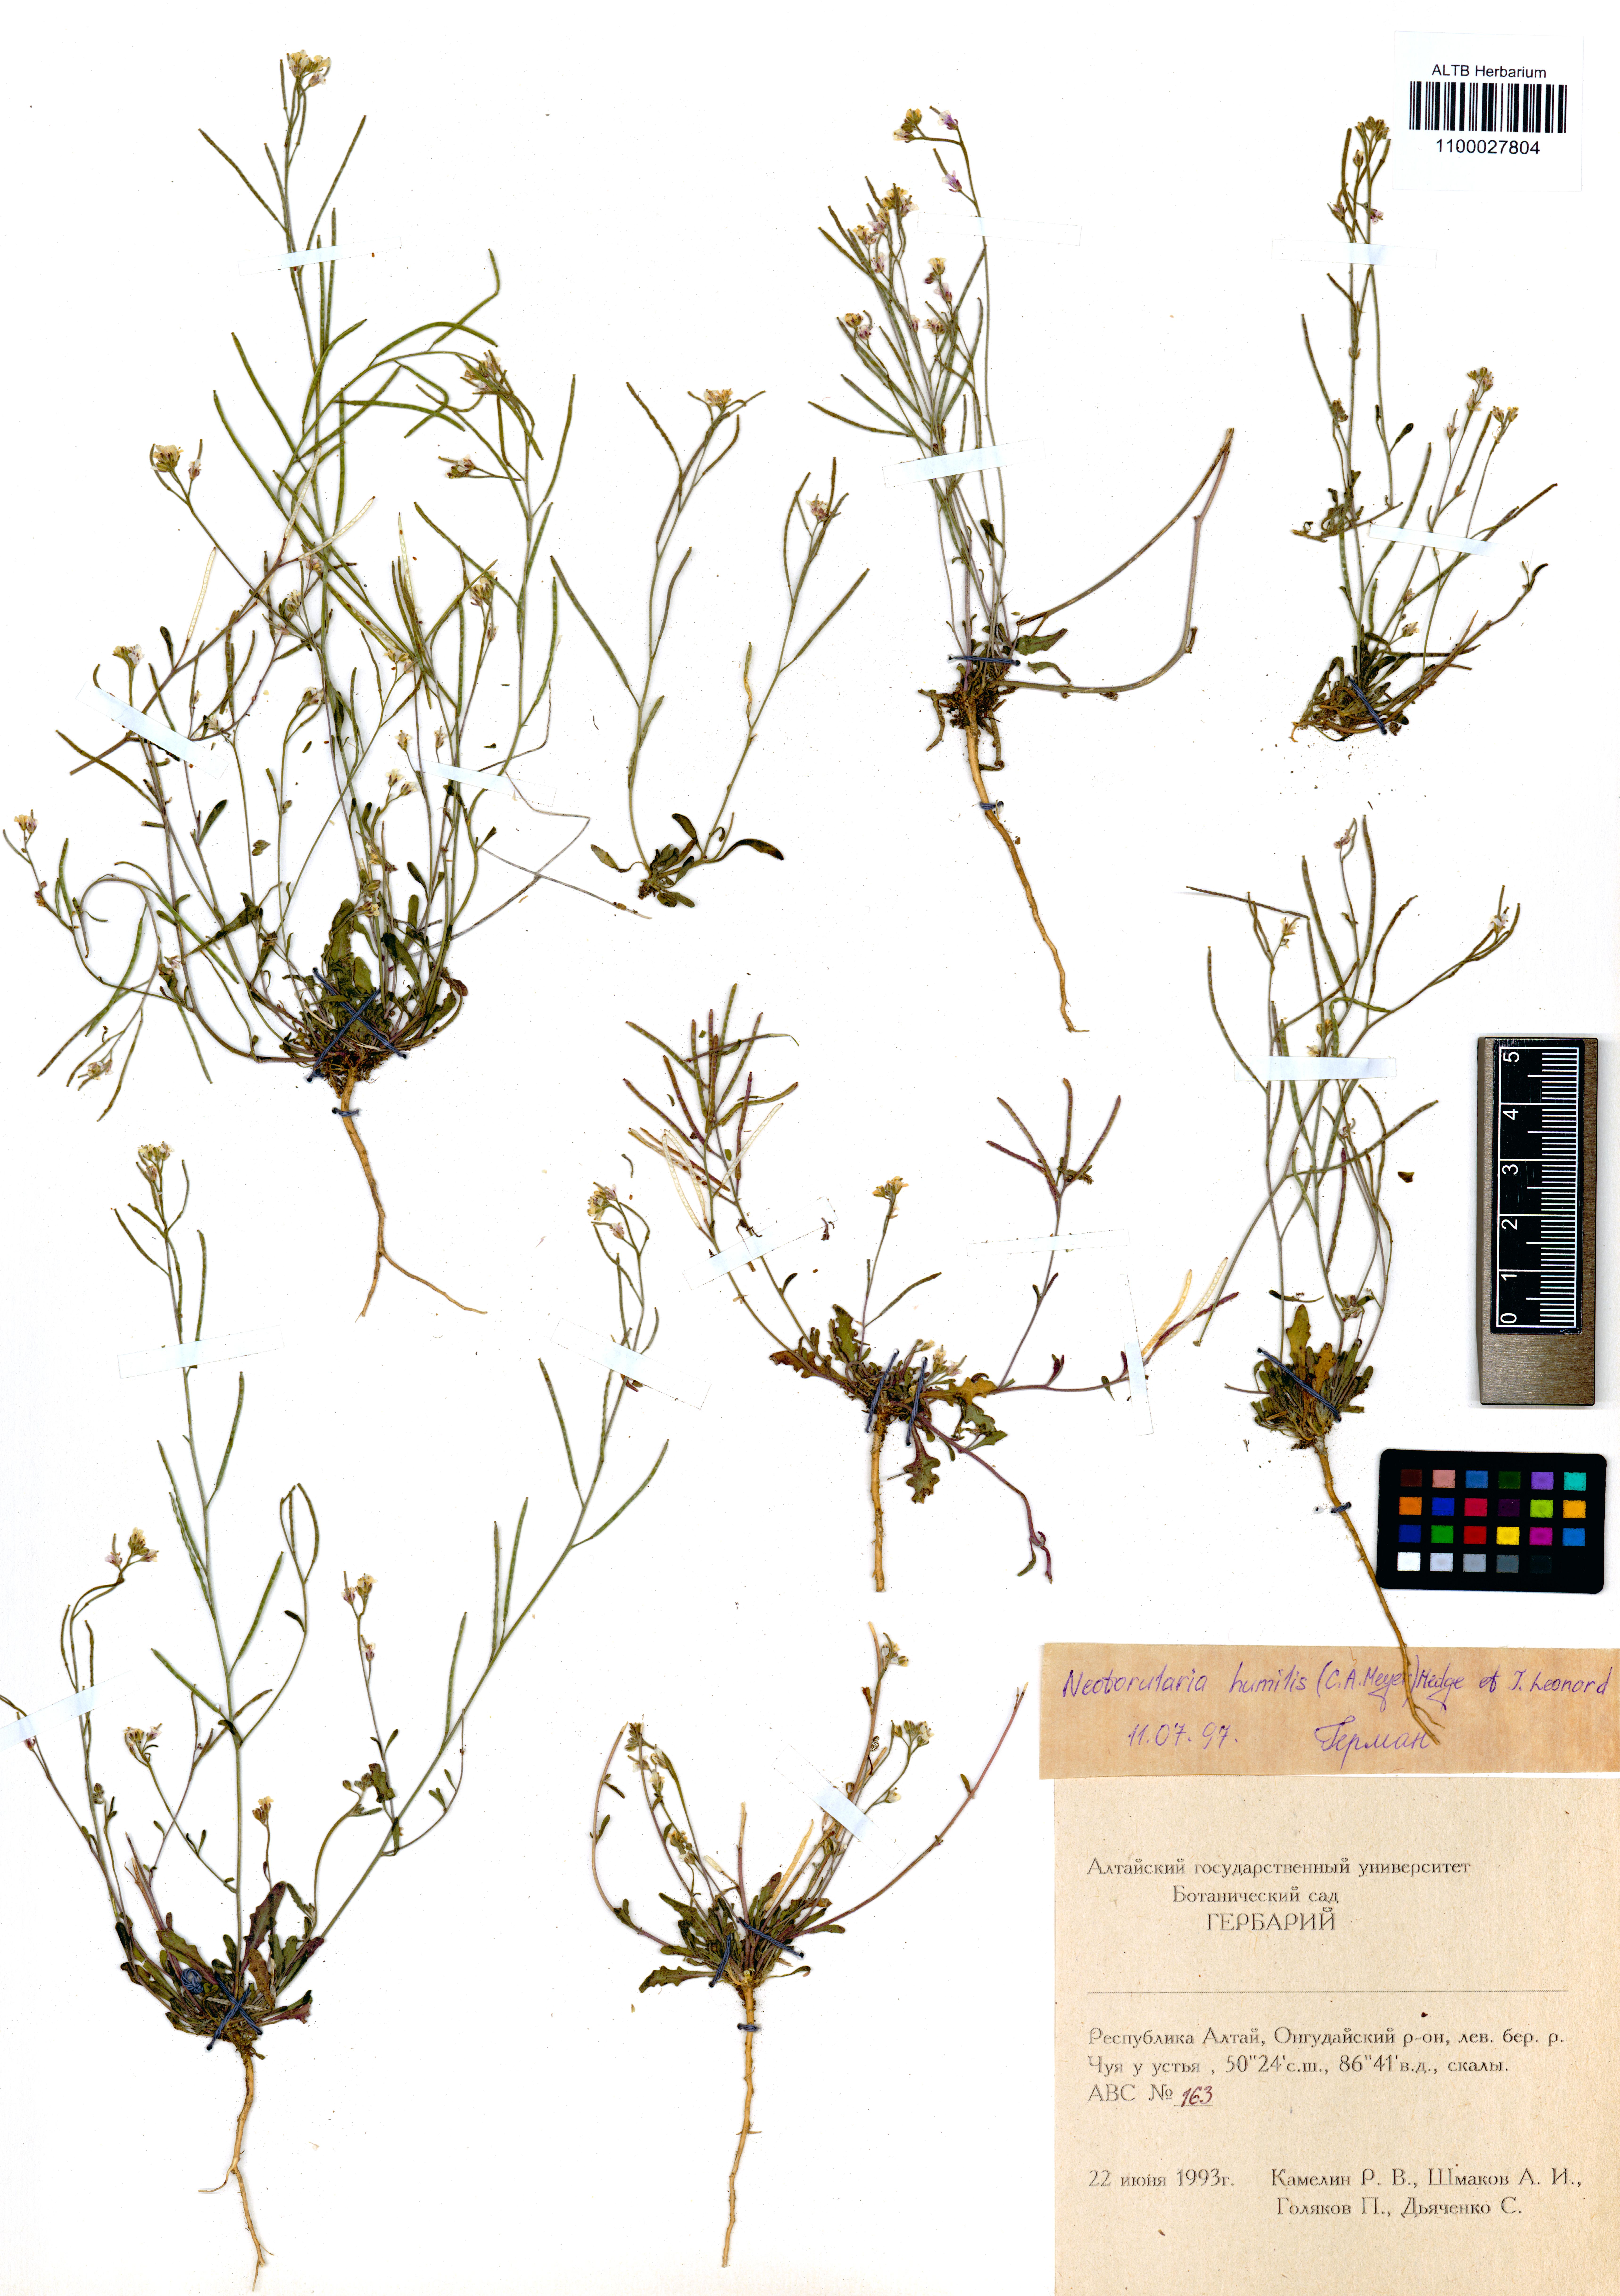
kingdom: Plantae
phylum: Tracheophyta
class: Magnoliopsida
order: Brassicales
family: Brassicaceae
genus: Braya
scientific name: Braya humilis
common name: Alpine northern rockcress
